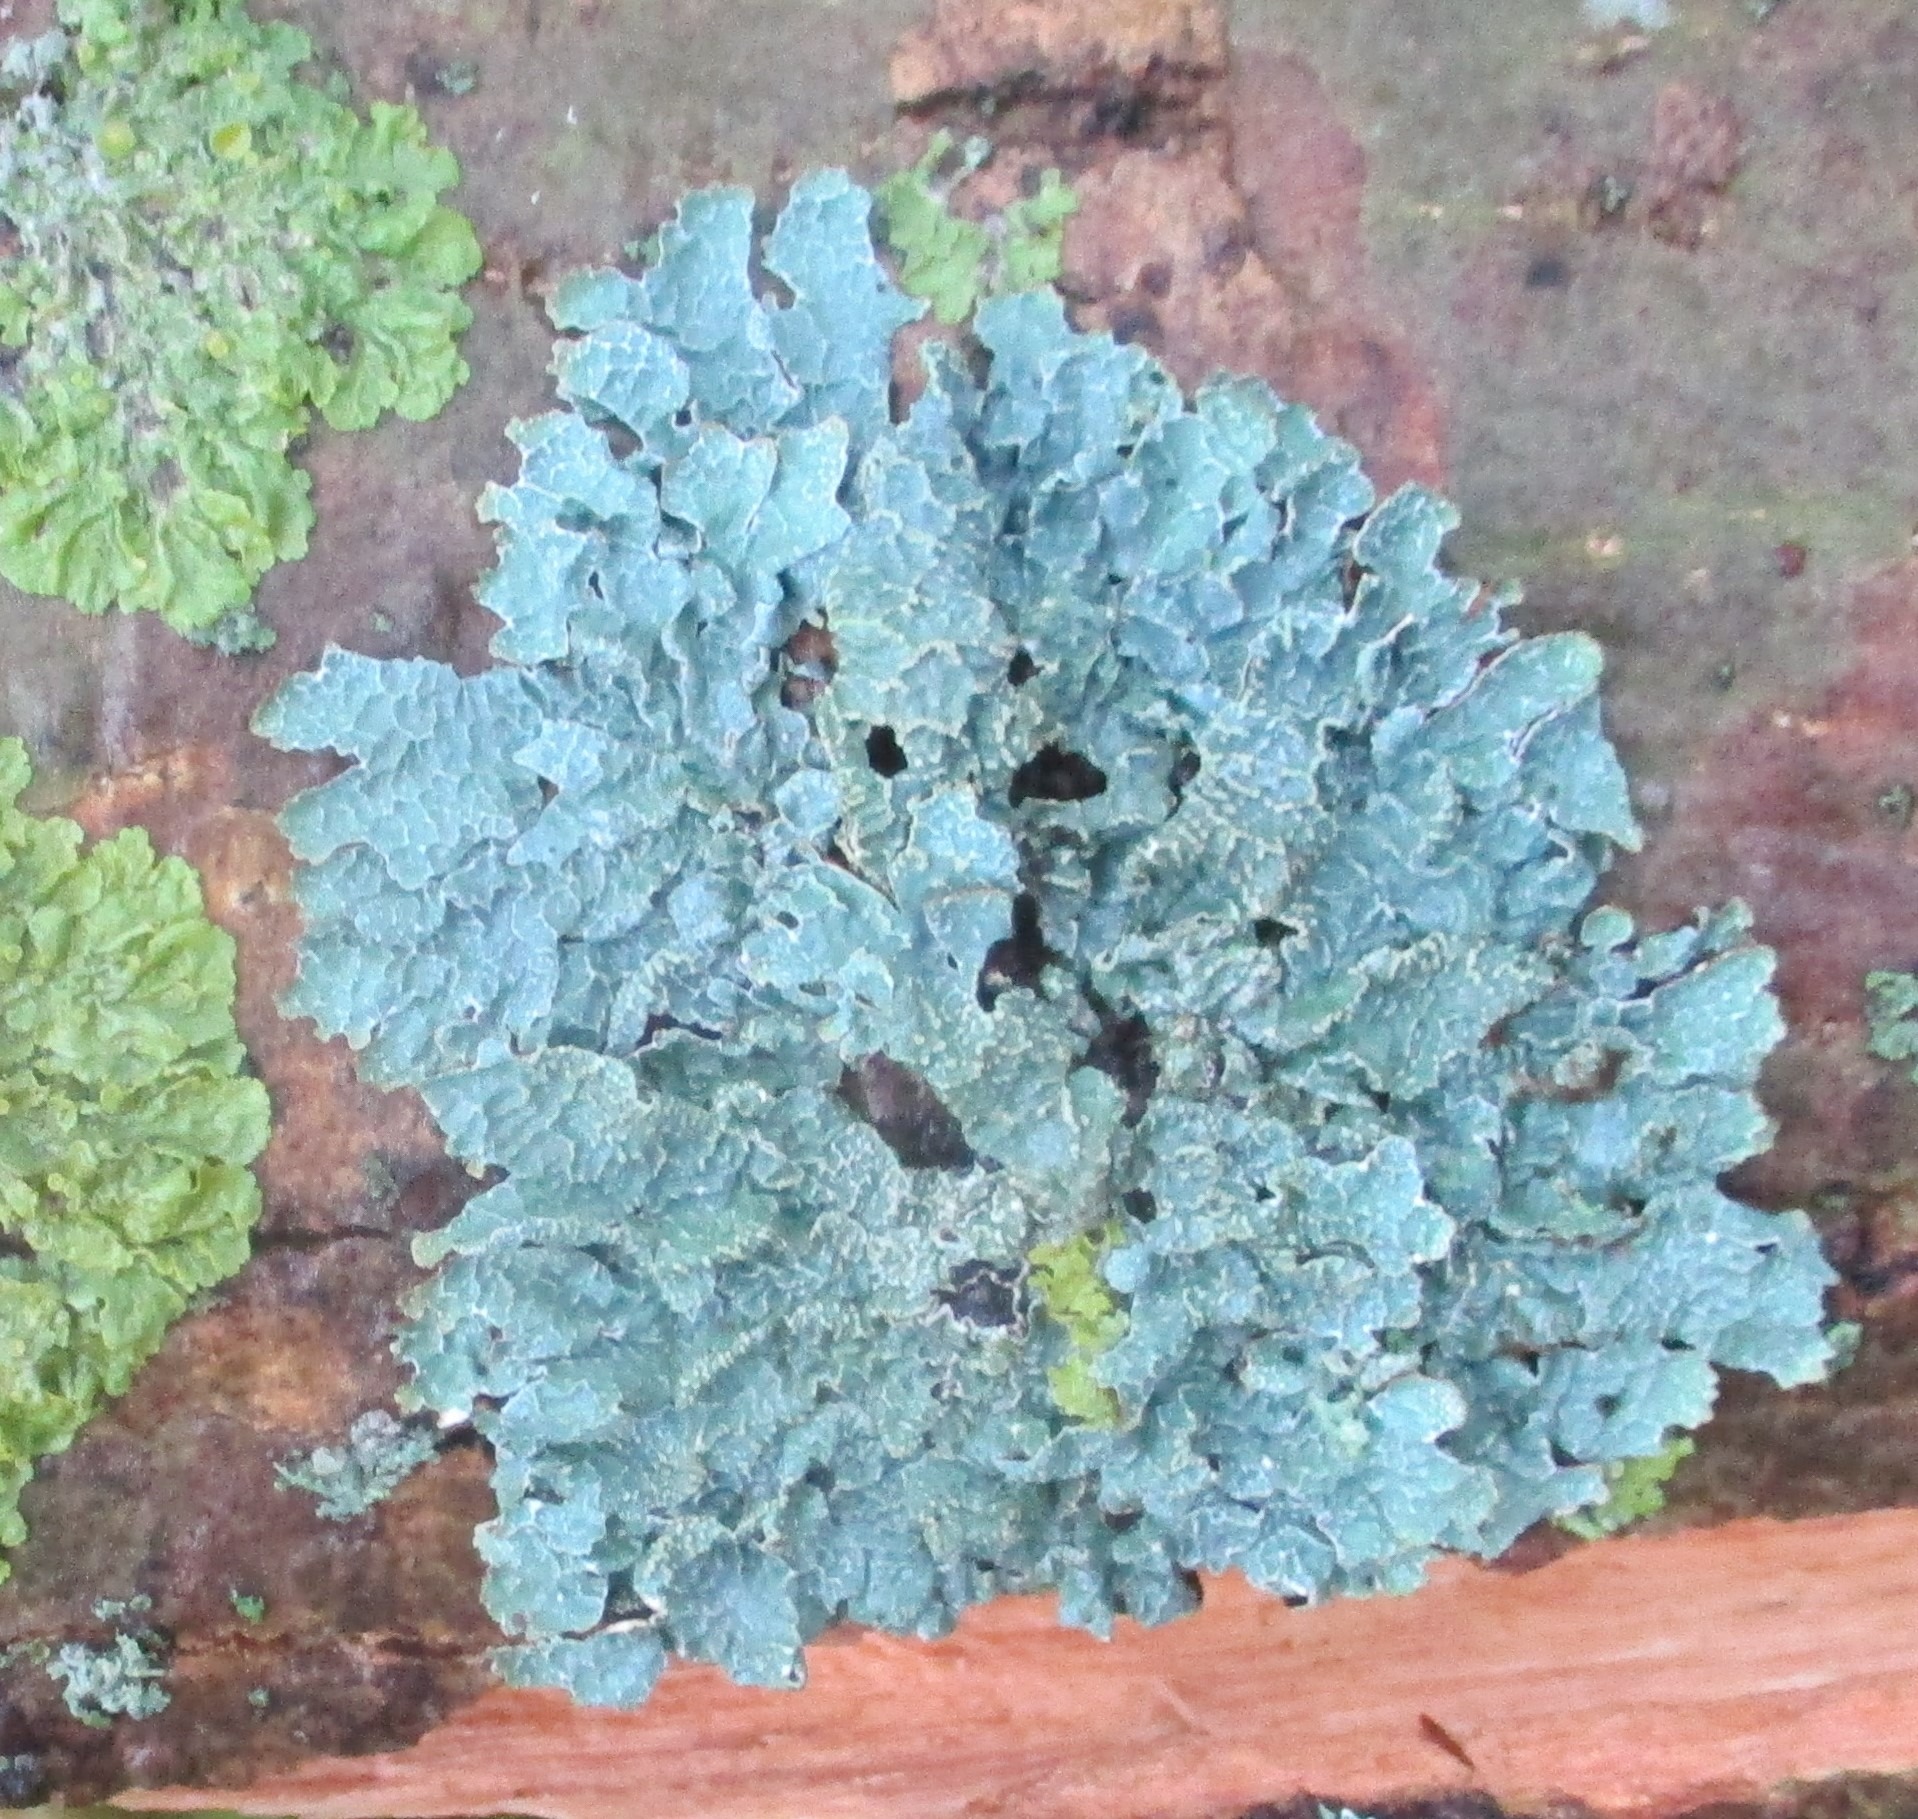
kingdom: Fungi
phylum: Ascomycota
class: Lecanoromycetes
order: Lecanorales
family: Parmeliaceae
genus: Parmelia
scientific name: Parmelia sulcata
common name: Rynket skållav
